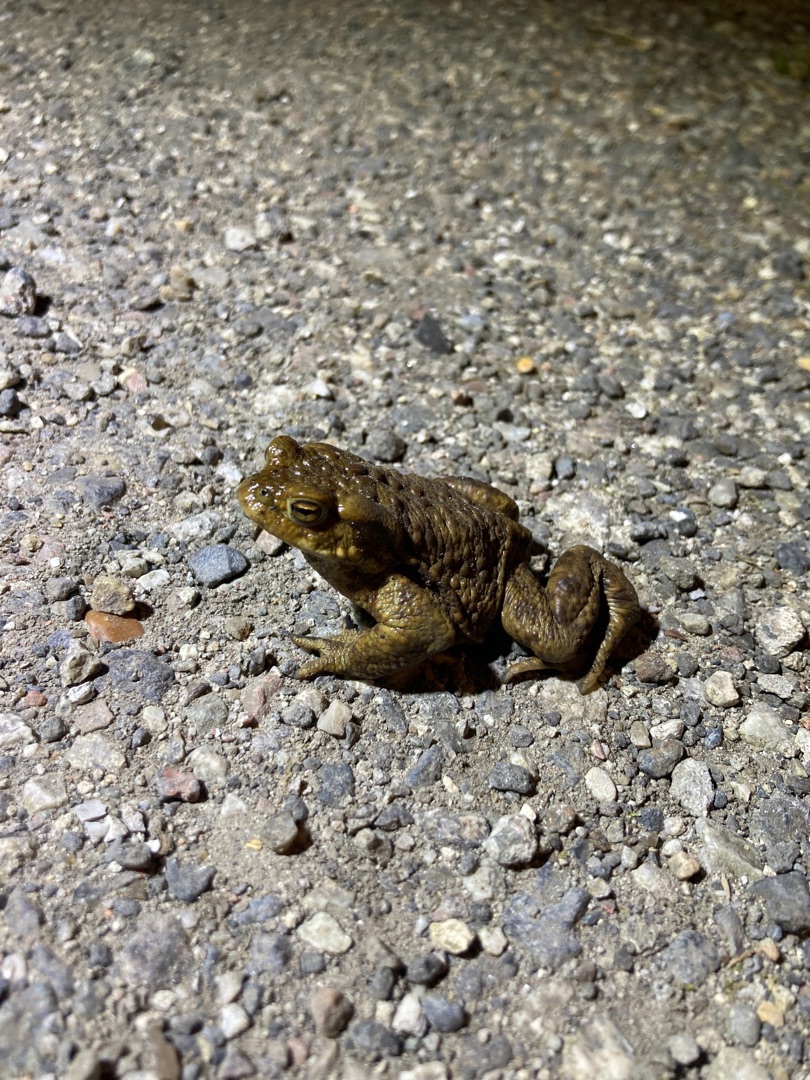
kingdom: Animalia
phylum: Chordata
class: Amphibia
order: Anura
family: Bufonidae
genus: Bufo
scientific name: Bufo bufo
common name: Skrubtudse
